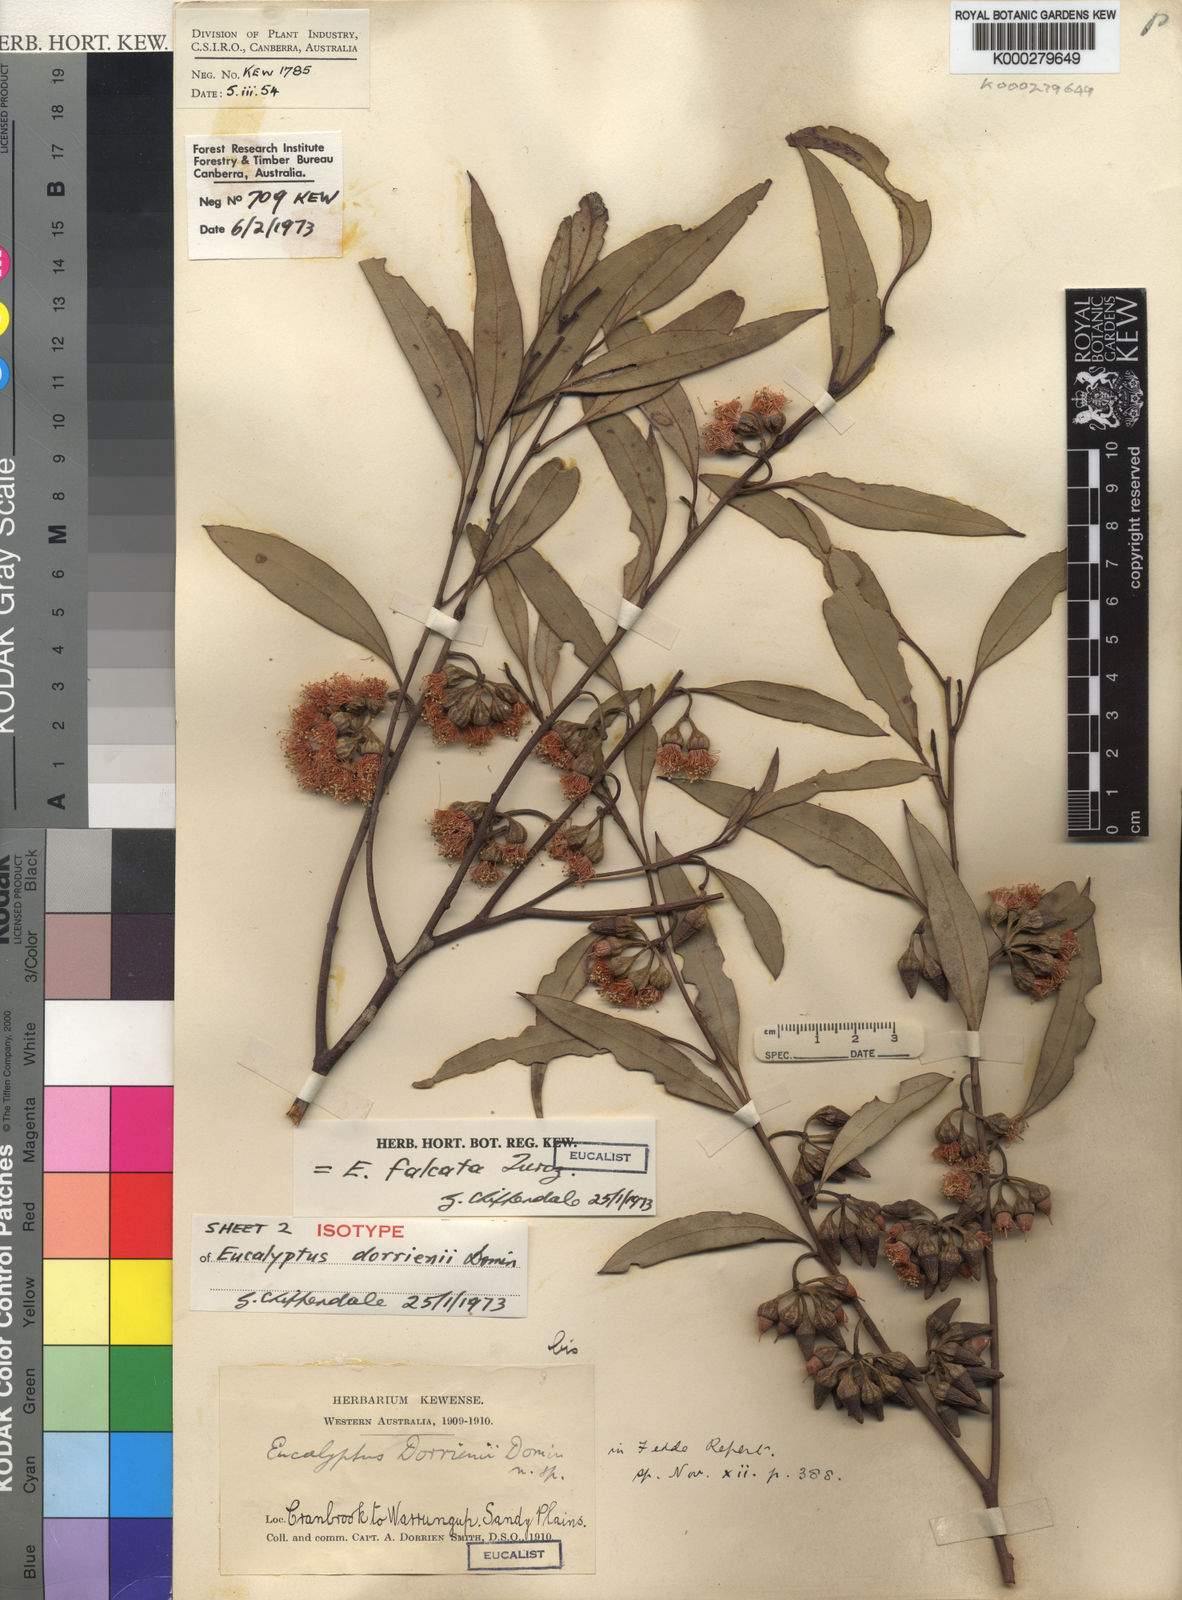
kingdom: Plantae
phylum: Tracheophyta
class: Magnoliopsida
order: Myrtales
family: Myrtaceae
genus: Eucalyptus
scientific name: Eucalyptus falcata
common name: Silver mallet
